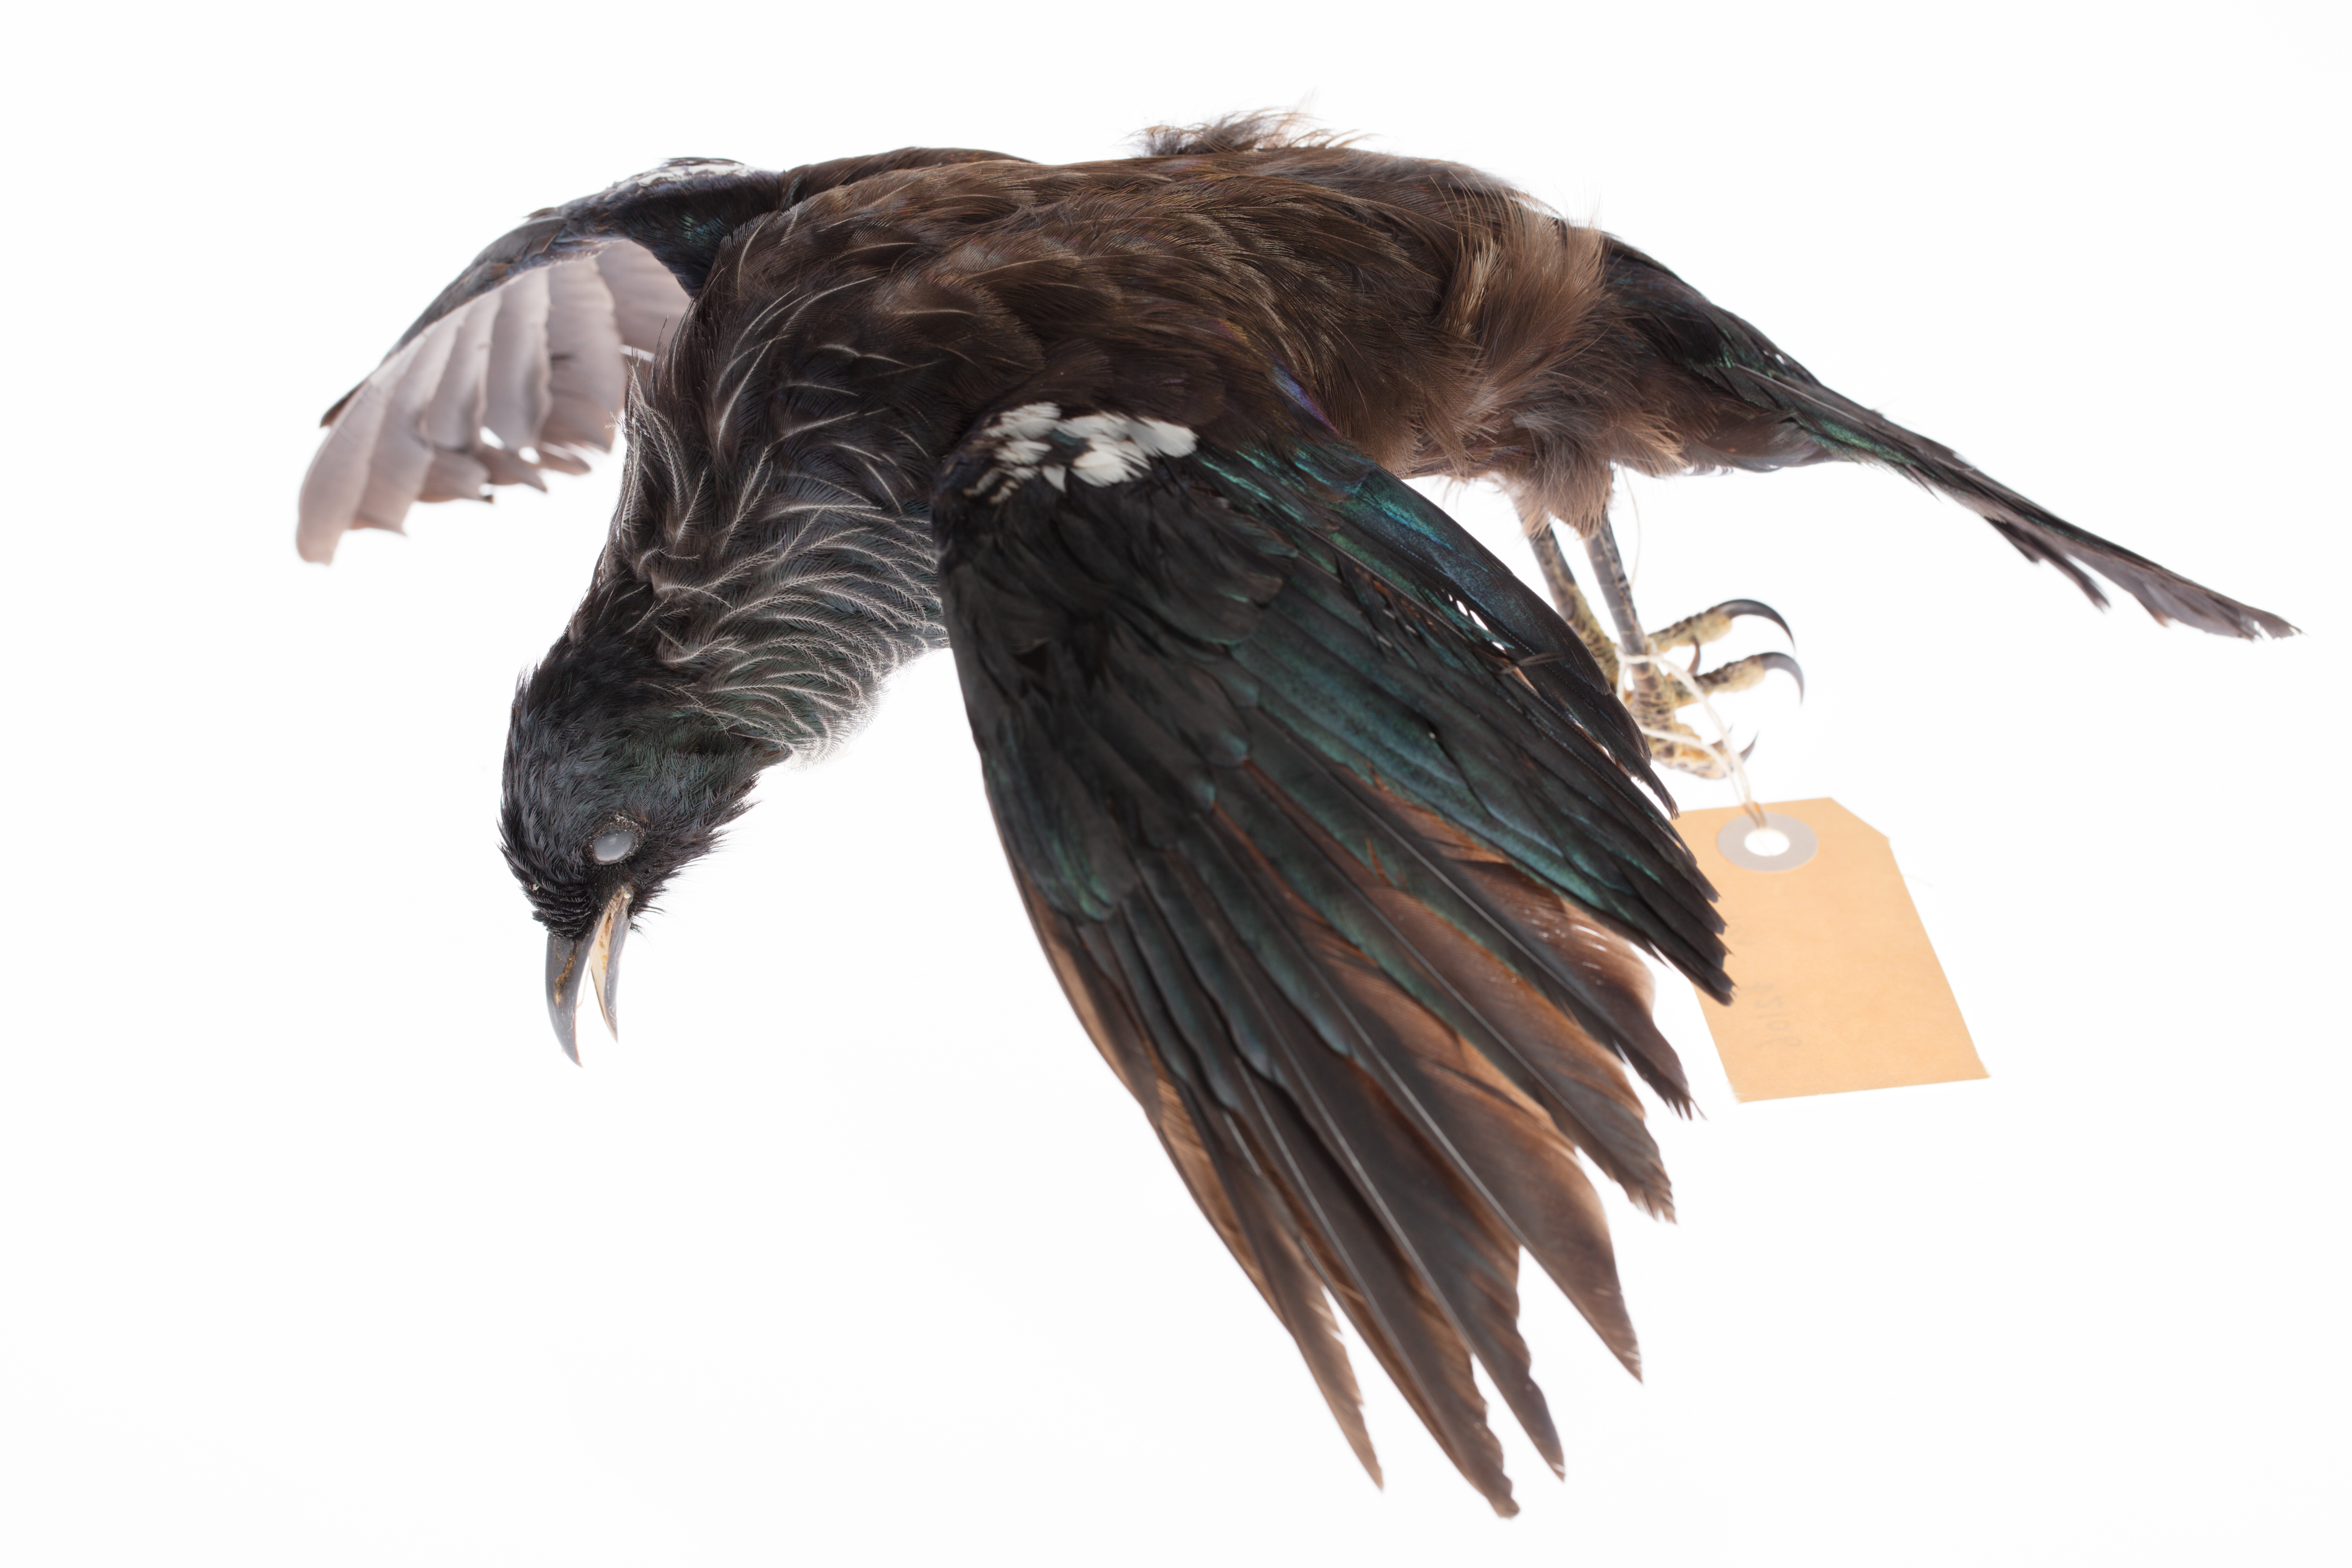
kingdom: Animalia
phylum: Chordata
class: Aves
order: Passeriformes
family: Meliphagidae
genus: Prosthemadera
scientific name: Prosthemadera novaeseelandiae
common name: Tui
